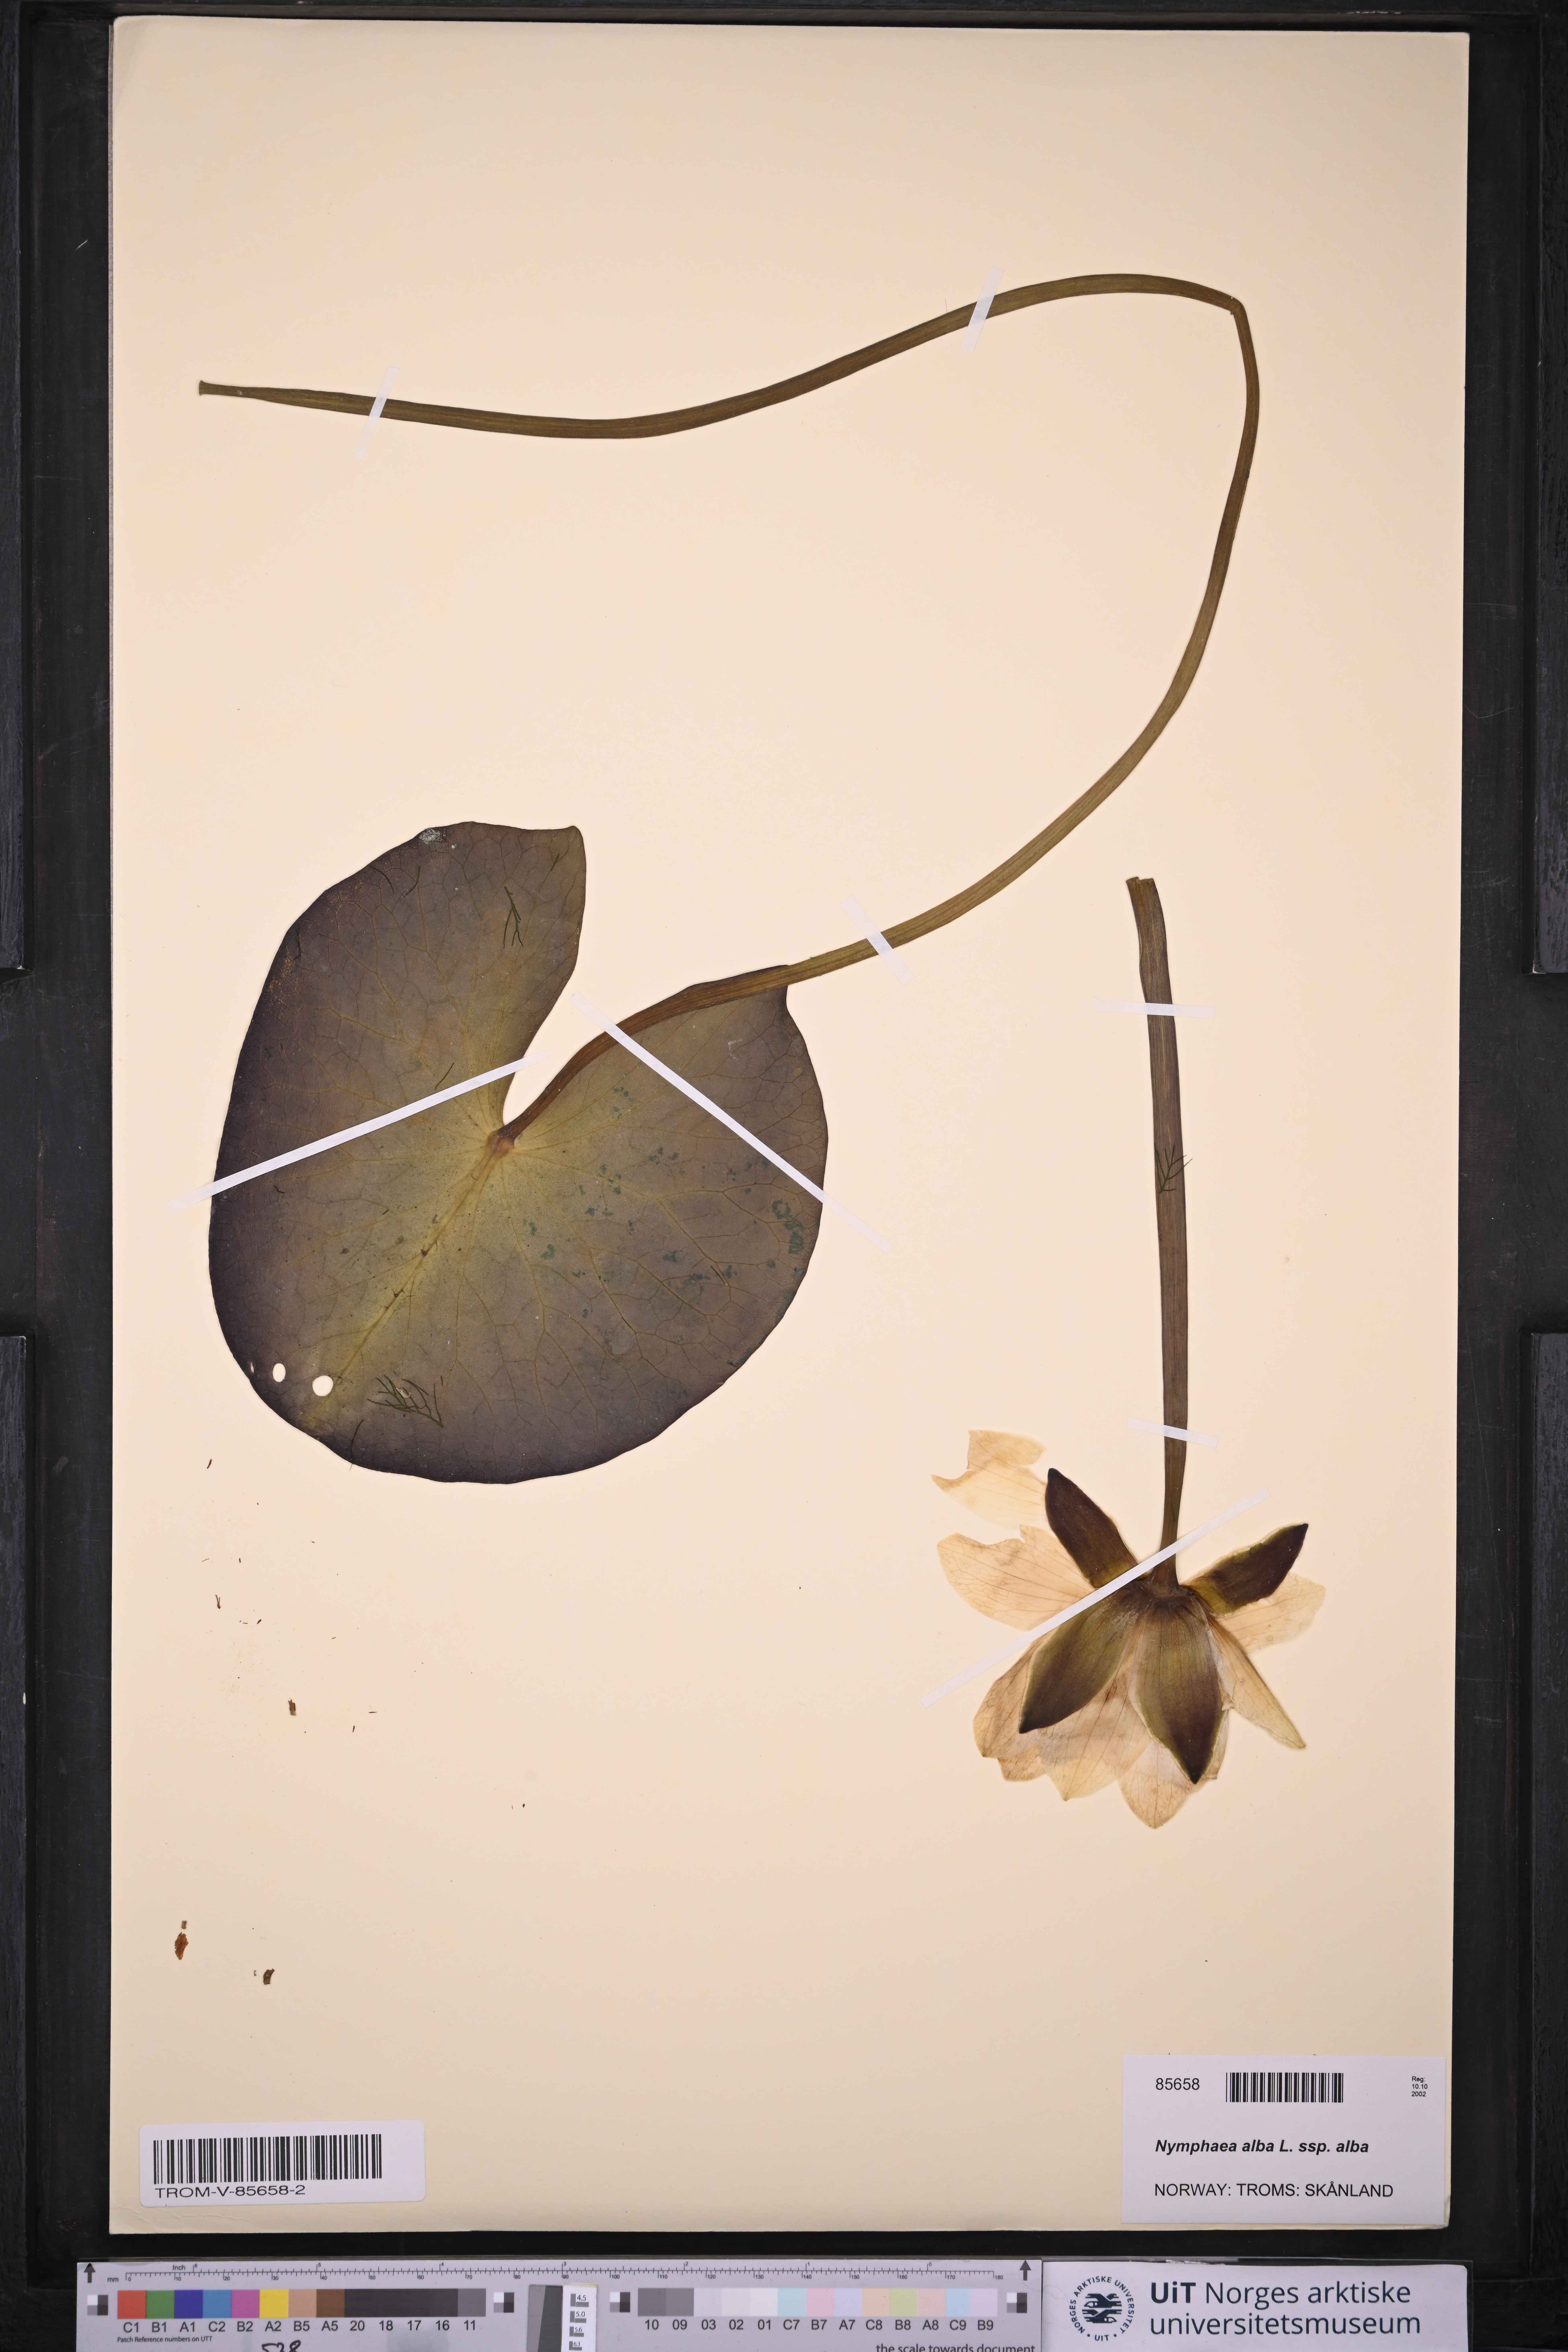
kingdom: Plantae
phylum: Tracheophyta
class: Magnoliopsida
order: Nymphaeales
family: Nymphaeaceae
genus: Nymphaea
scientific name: Nymphaea alba
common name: White water-lily
